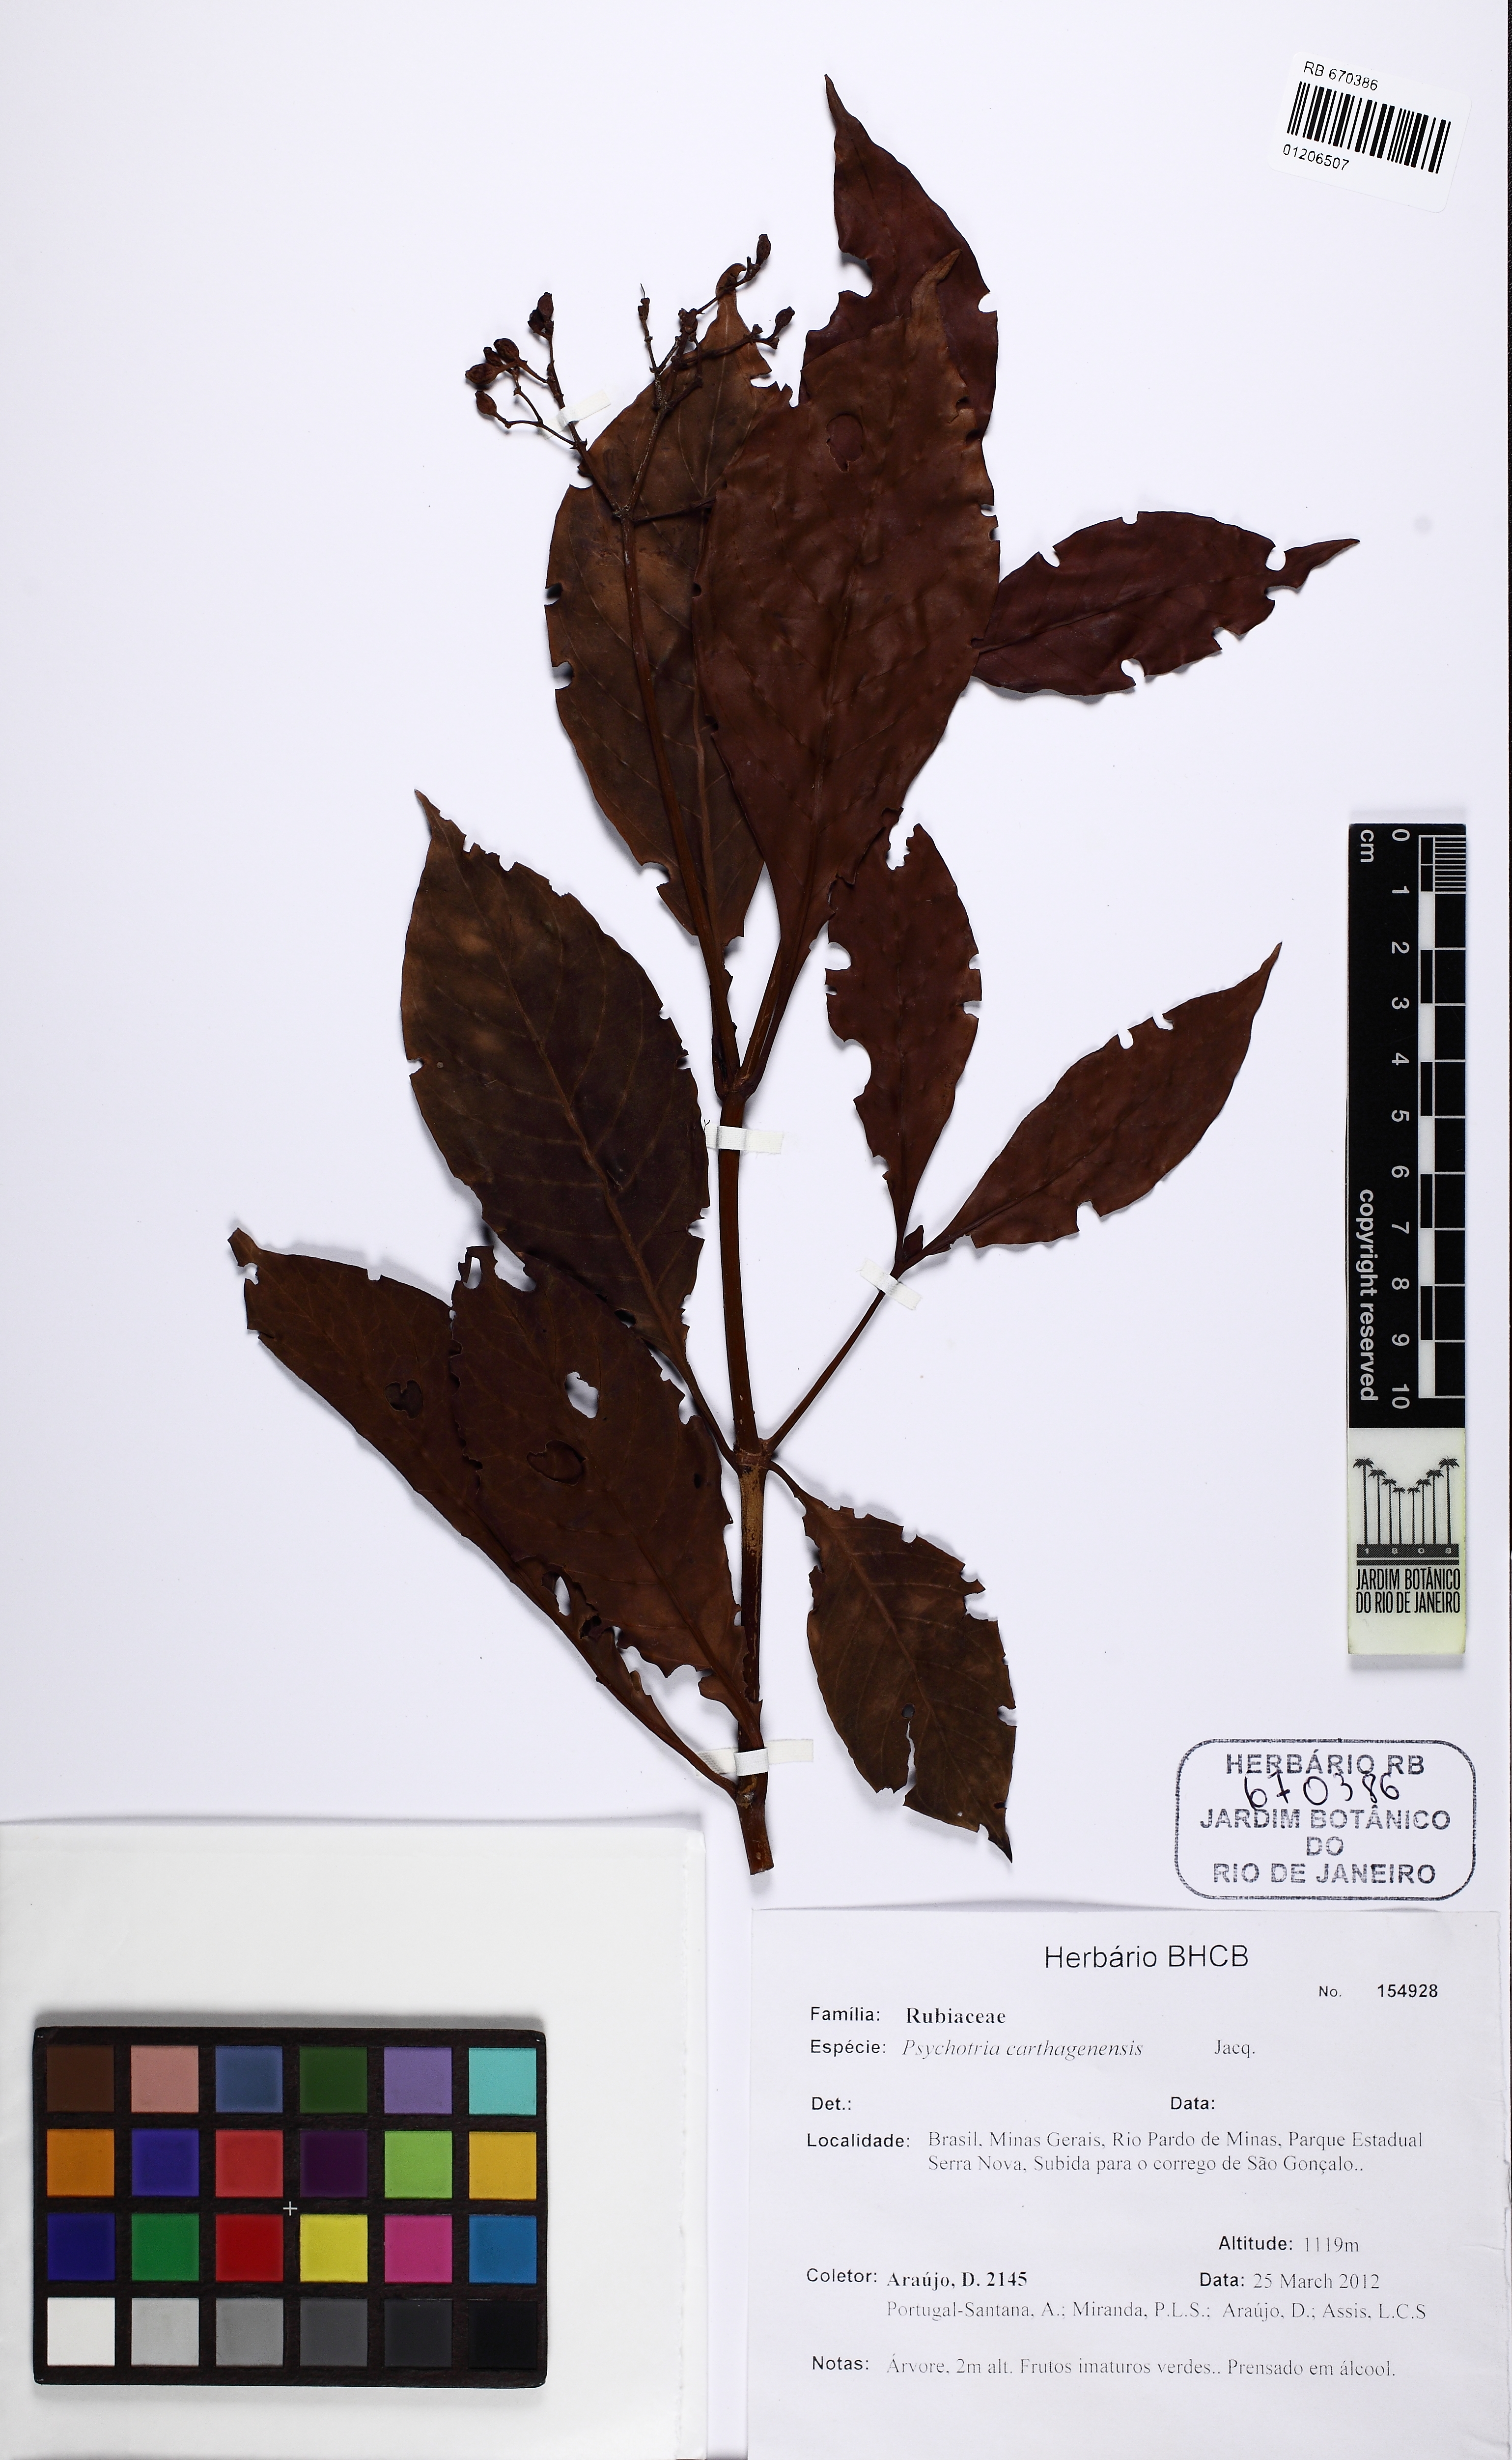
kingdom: Plantae
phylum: Tracheophyta
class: Magnoliopsida
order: Gentianales
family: Rubiaceae
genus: Psychotria
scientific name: Psychotria carthagenensis
